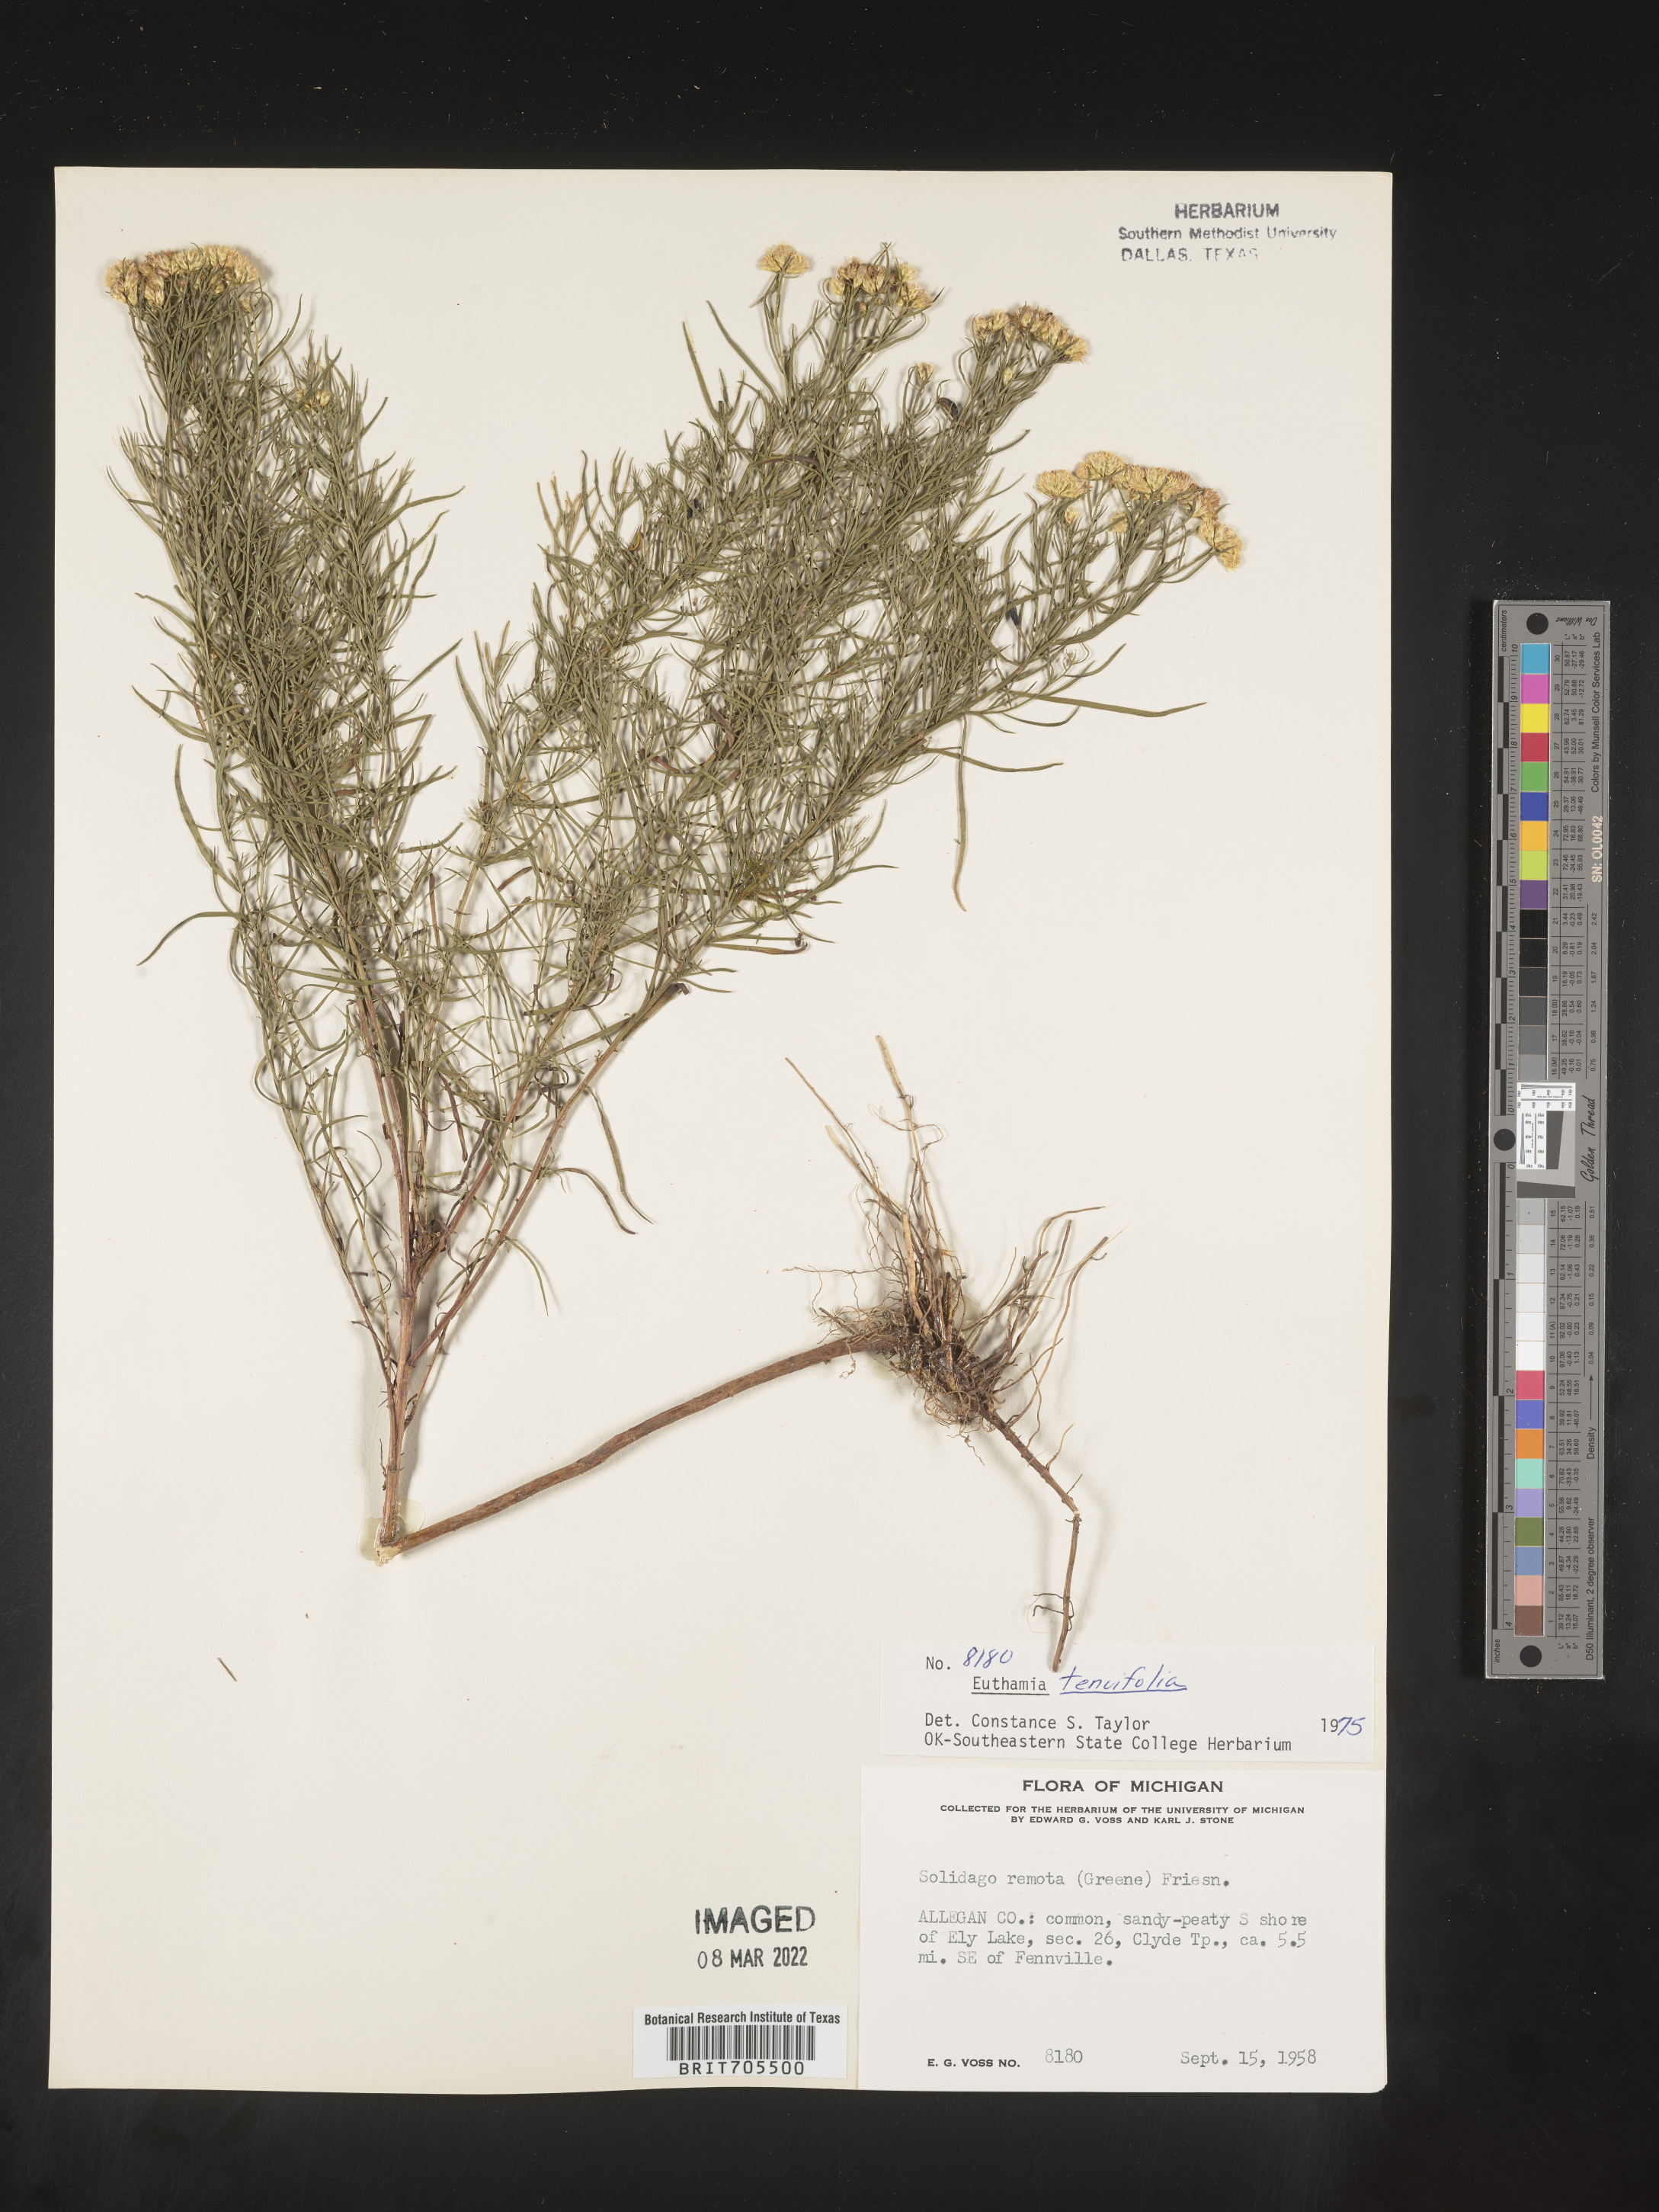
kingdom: Plantae
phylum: Tracheophyta
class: Magnoliopsida
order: Asterales
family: Asteraceae
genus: Euthamia
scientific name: Euthamia caroliniana
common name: Coastal plain goldentop
